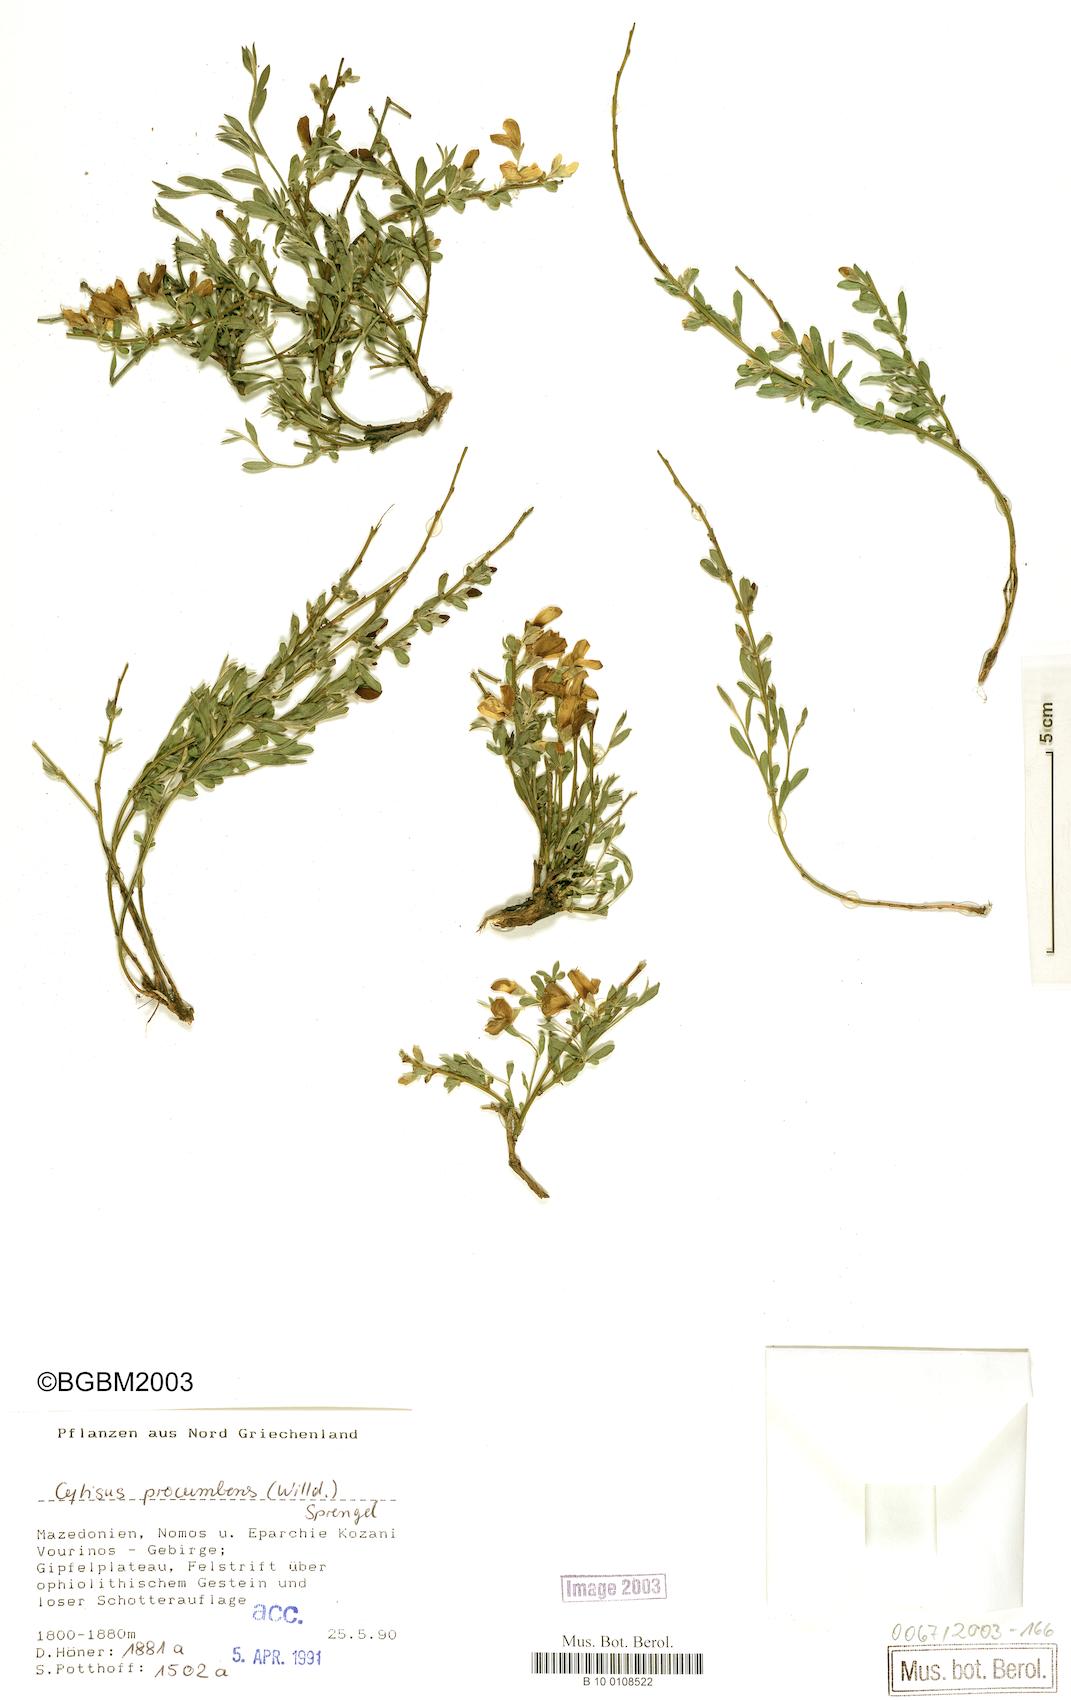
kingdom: Plantae
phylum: Tracheophyta
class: Magnoliopsida
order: Fabales
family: Fabaceae
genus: Cytisus
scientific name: Cytisus procumbens
